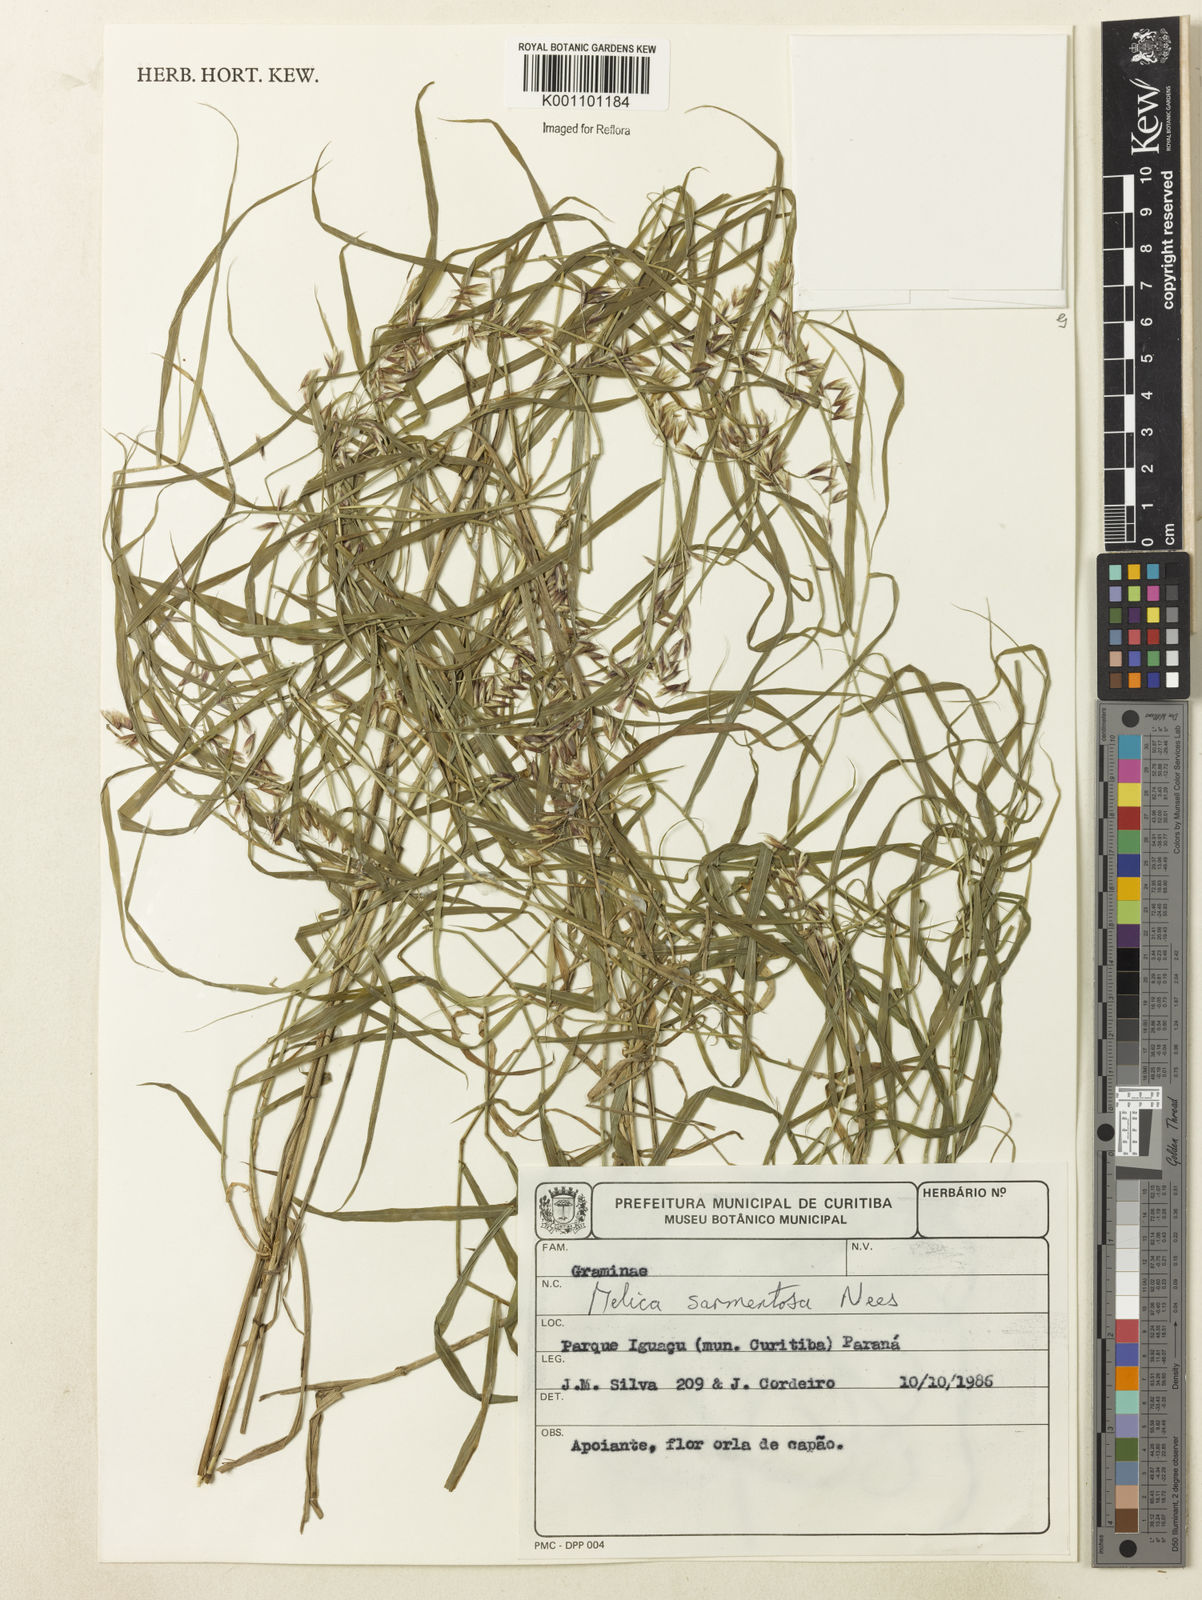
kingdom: Plantae
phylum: Tracheophyta
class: Liliopsida
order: Poales
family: Poaceae
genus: Melica
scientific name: Melica sarmentosa
